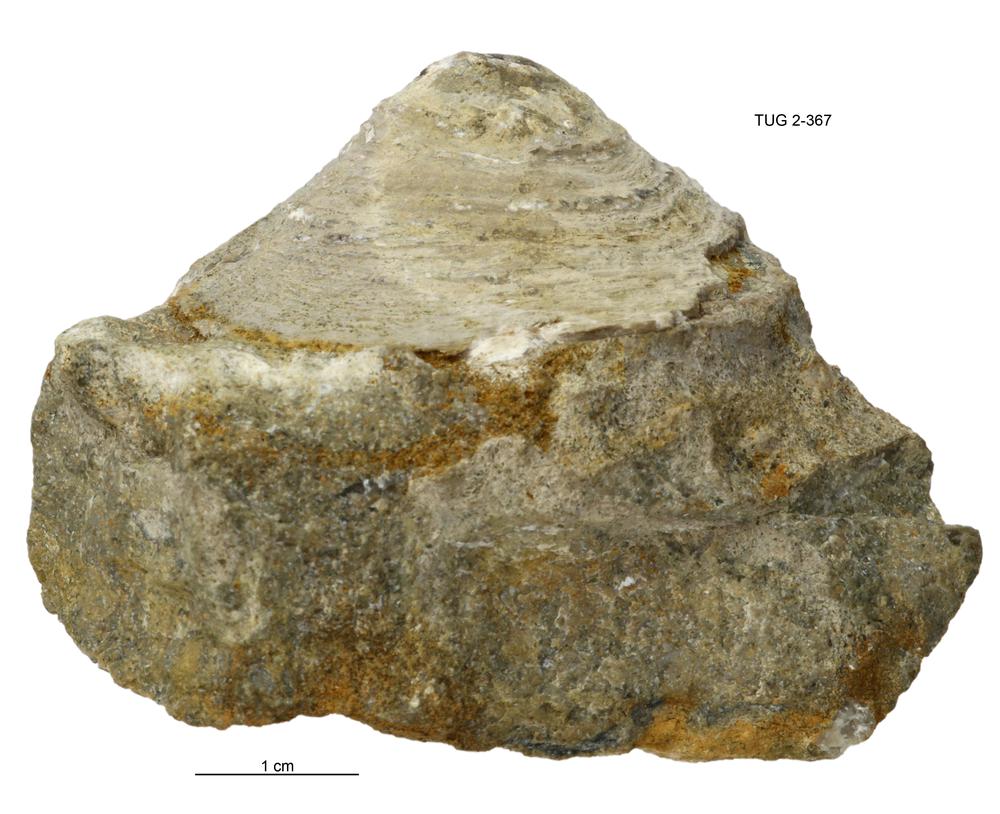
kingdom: Animalia
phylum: Mollusca
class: Monoplacophora
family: Metoptomatidae
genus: Metoptoma
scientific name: Metoptoma
